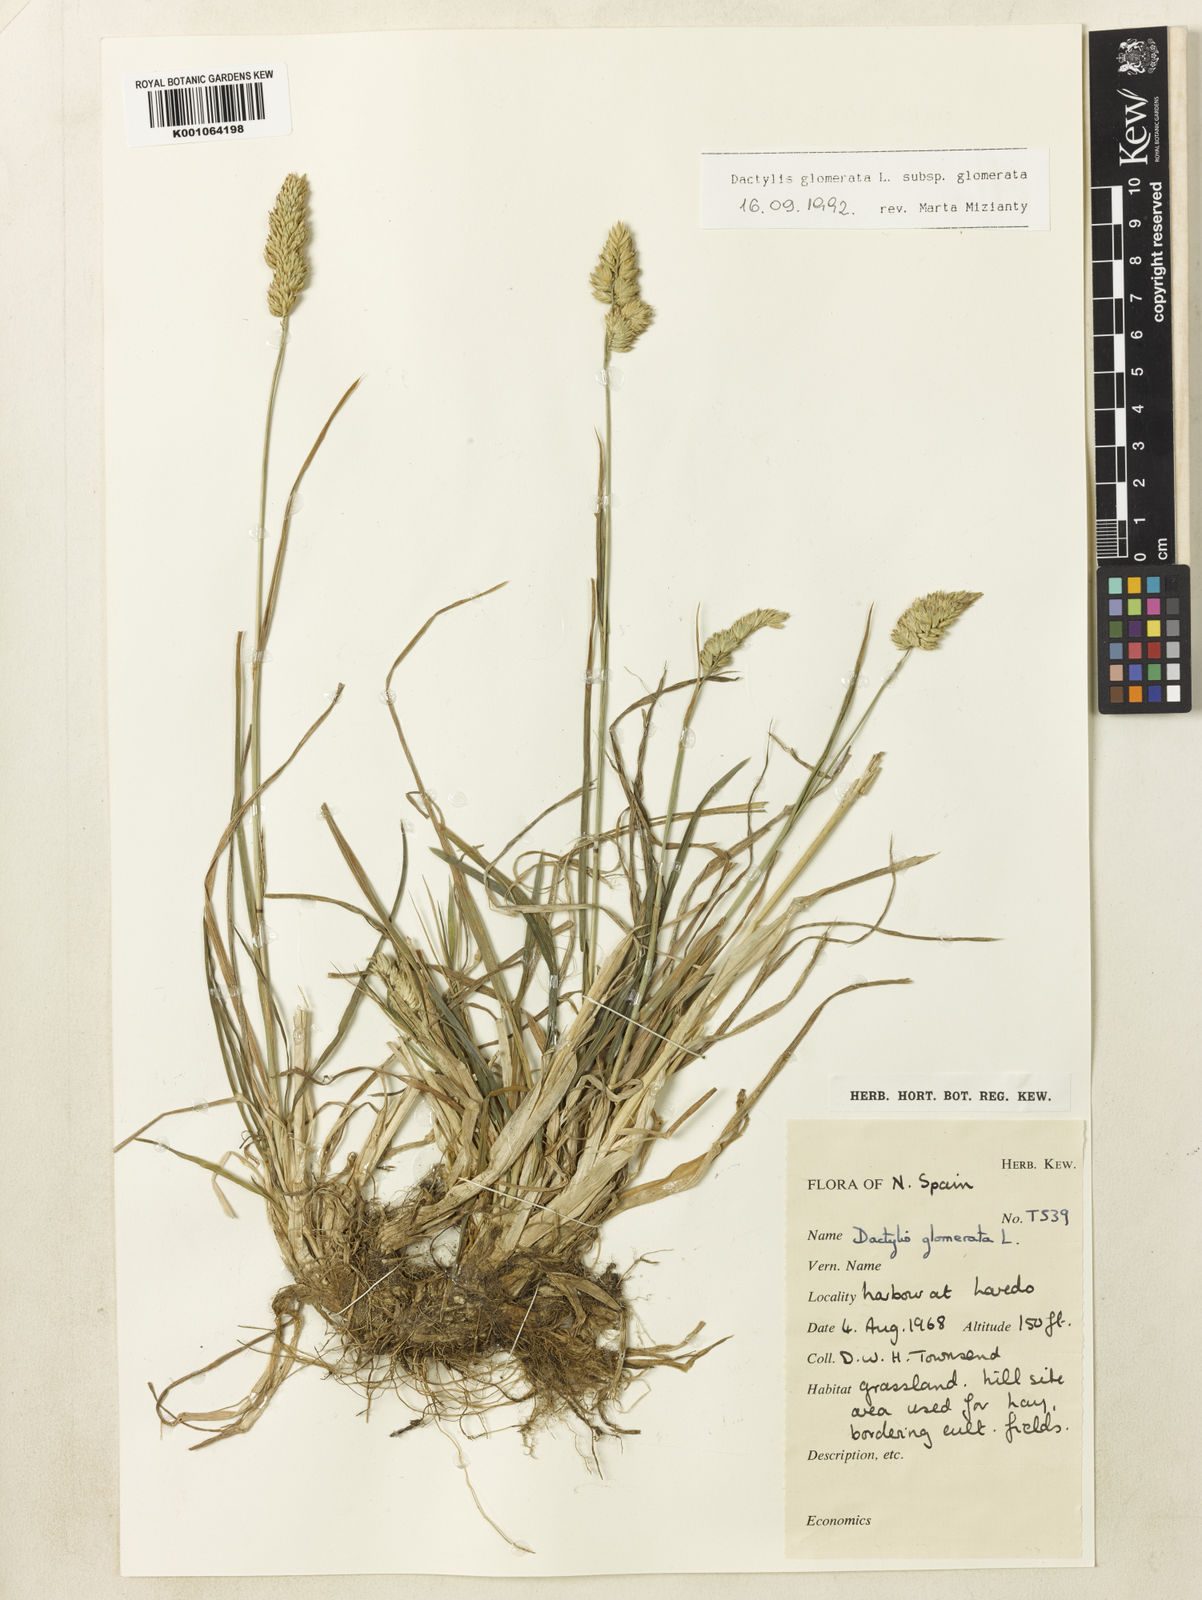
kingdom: Plantae
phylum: Tracheophyta
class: Liliopsida
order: Poales
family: Poaceae
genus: Dactylis
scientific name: Dactylis glomerata
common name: Orchardgrass
